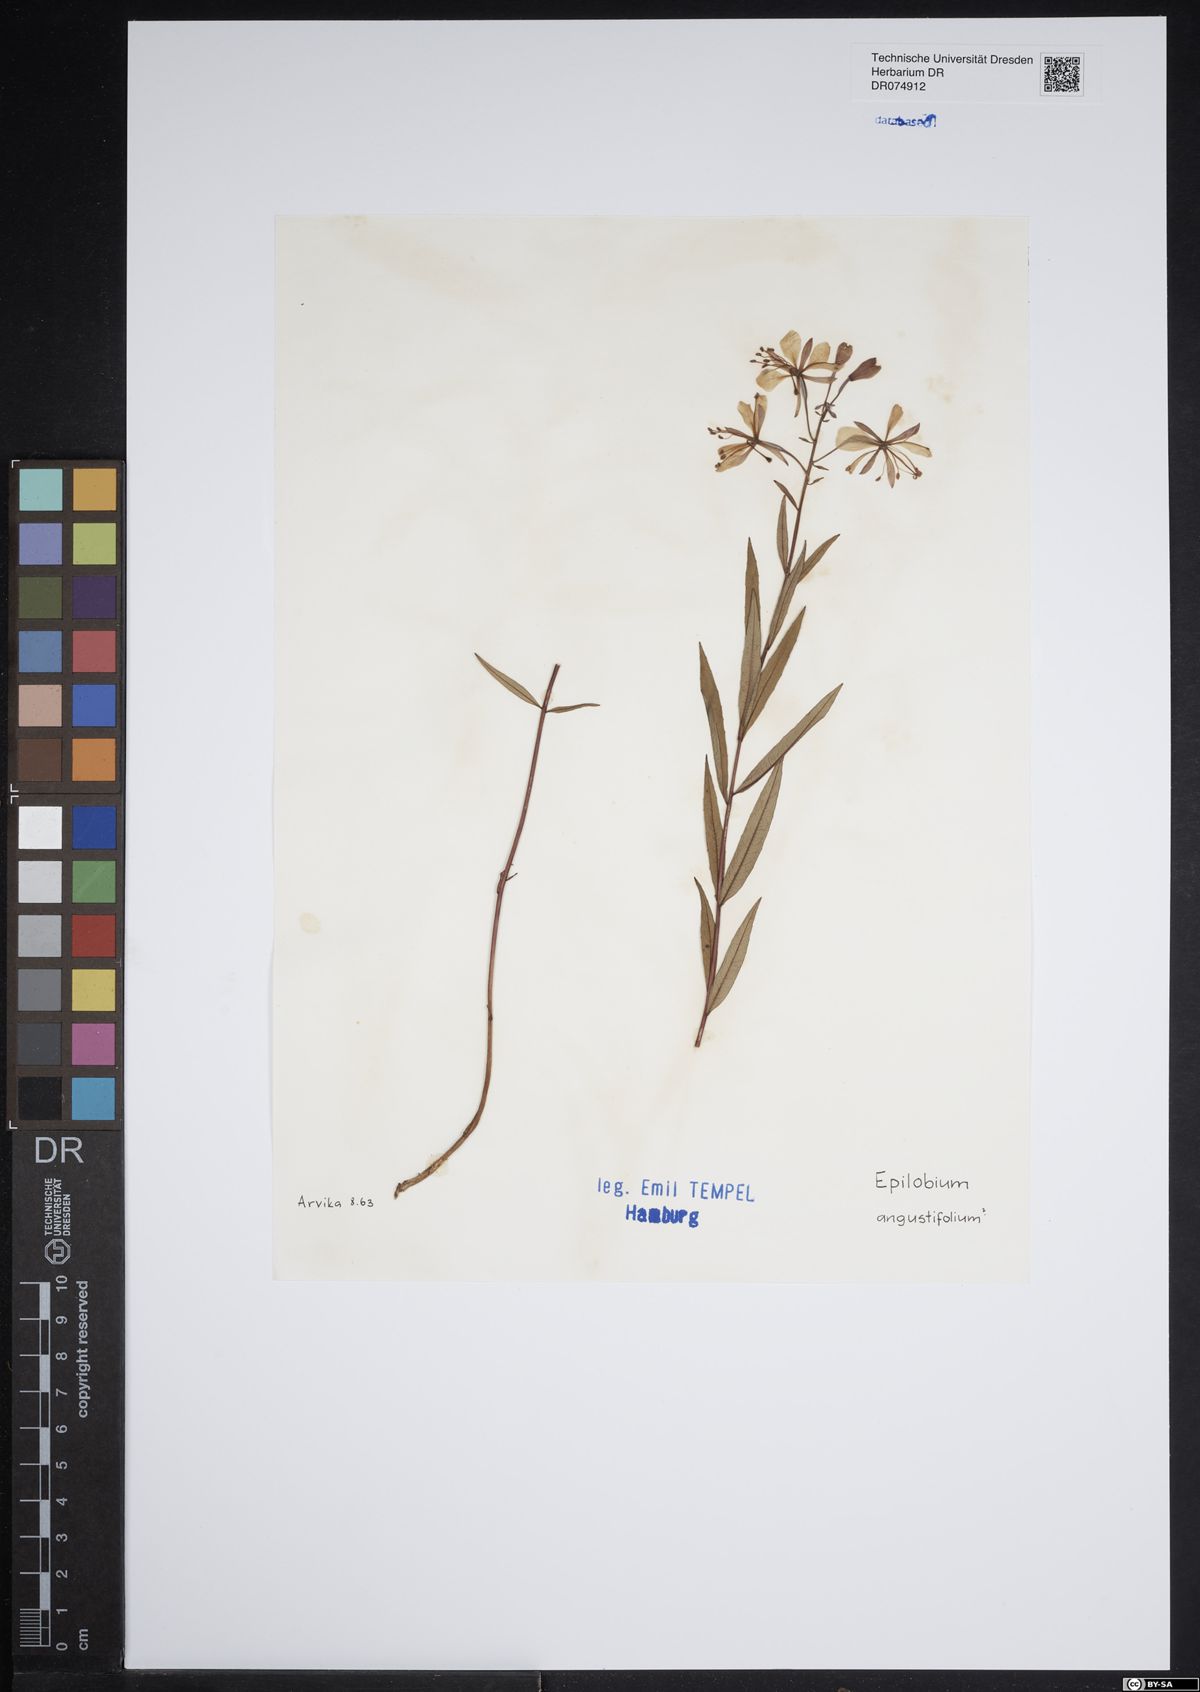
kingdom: Plantae
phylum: Tracheophyta
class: Magnoliopsida
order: Myrtales
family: Onagraceae
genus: Chamaenerion
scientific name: Chamaenerion angustifolium
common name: Fireweed
